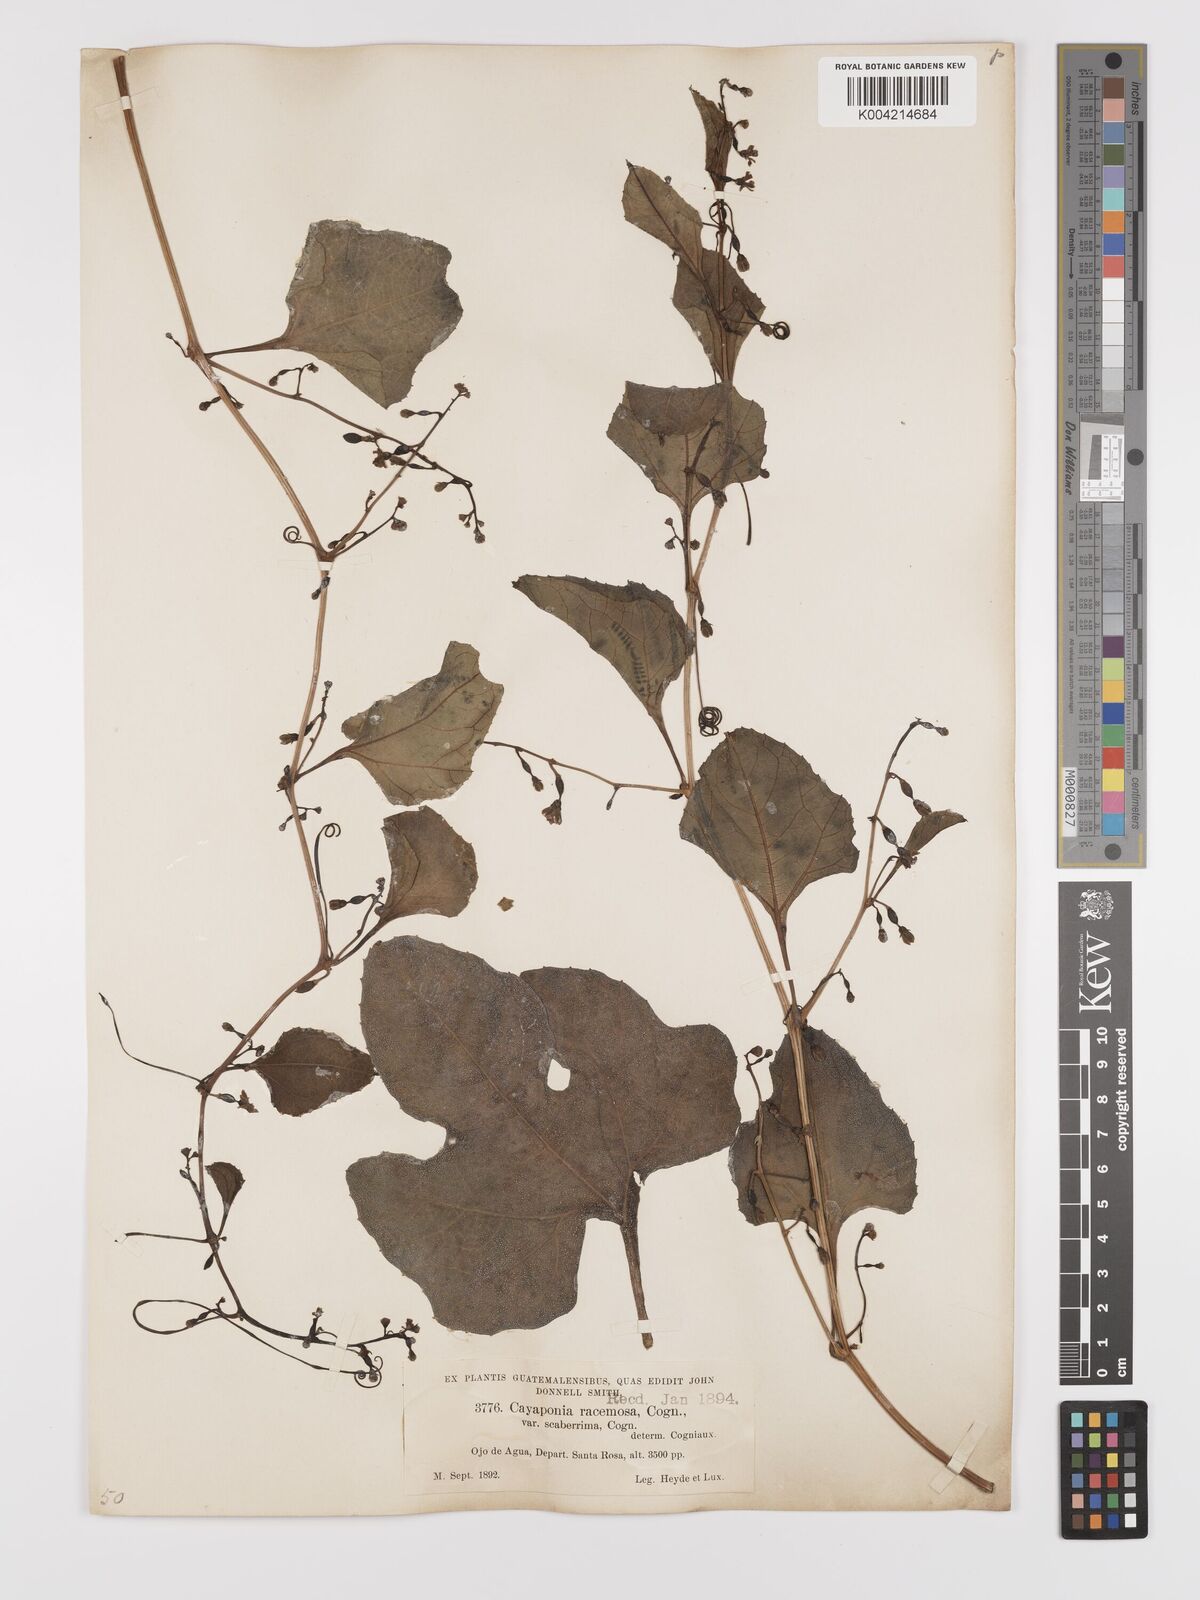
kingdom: Plantae
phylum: Tracheophyta
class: Magnoliopsida
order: Cucurbitales
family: Cucurbitaceae
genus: Cayaponia
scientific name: Cayaponia racemosa
